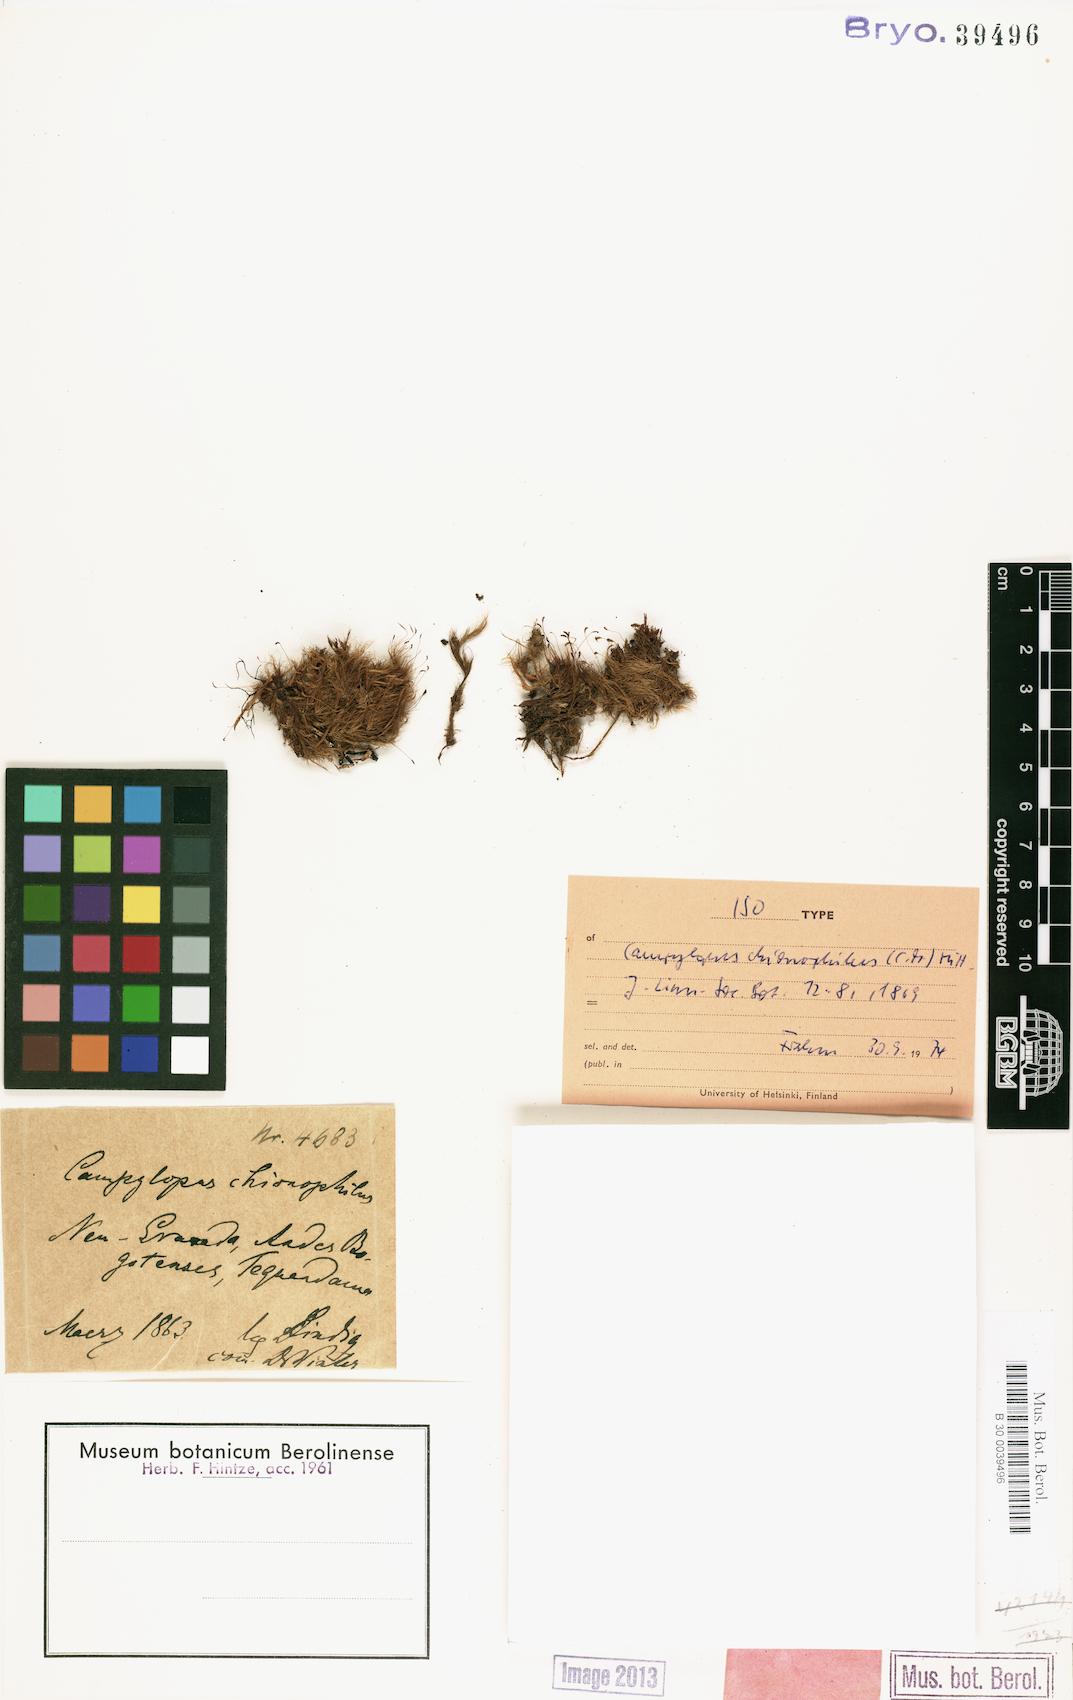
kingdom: Plantae
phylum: Bryophyta
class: Bryopsida
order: Dicranales
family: Leucobryaceae
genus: Dicranodontium
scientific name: Dicranodontium denudatum
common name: Beaked bow moss
